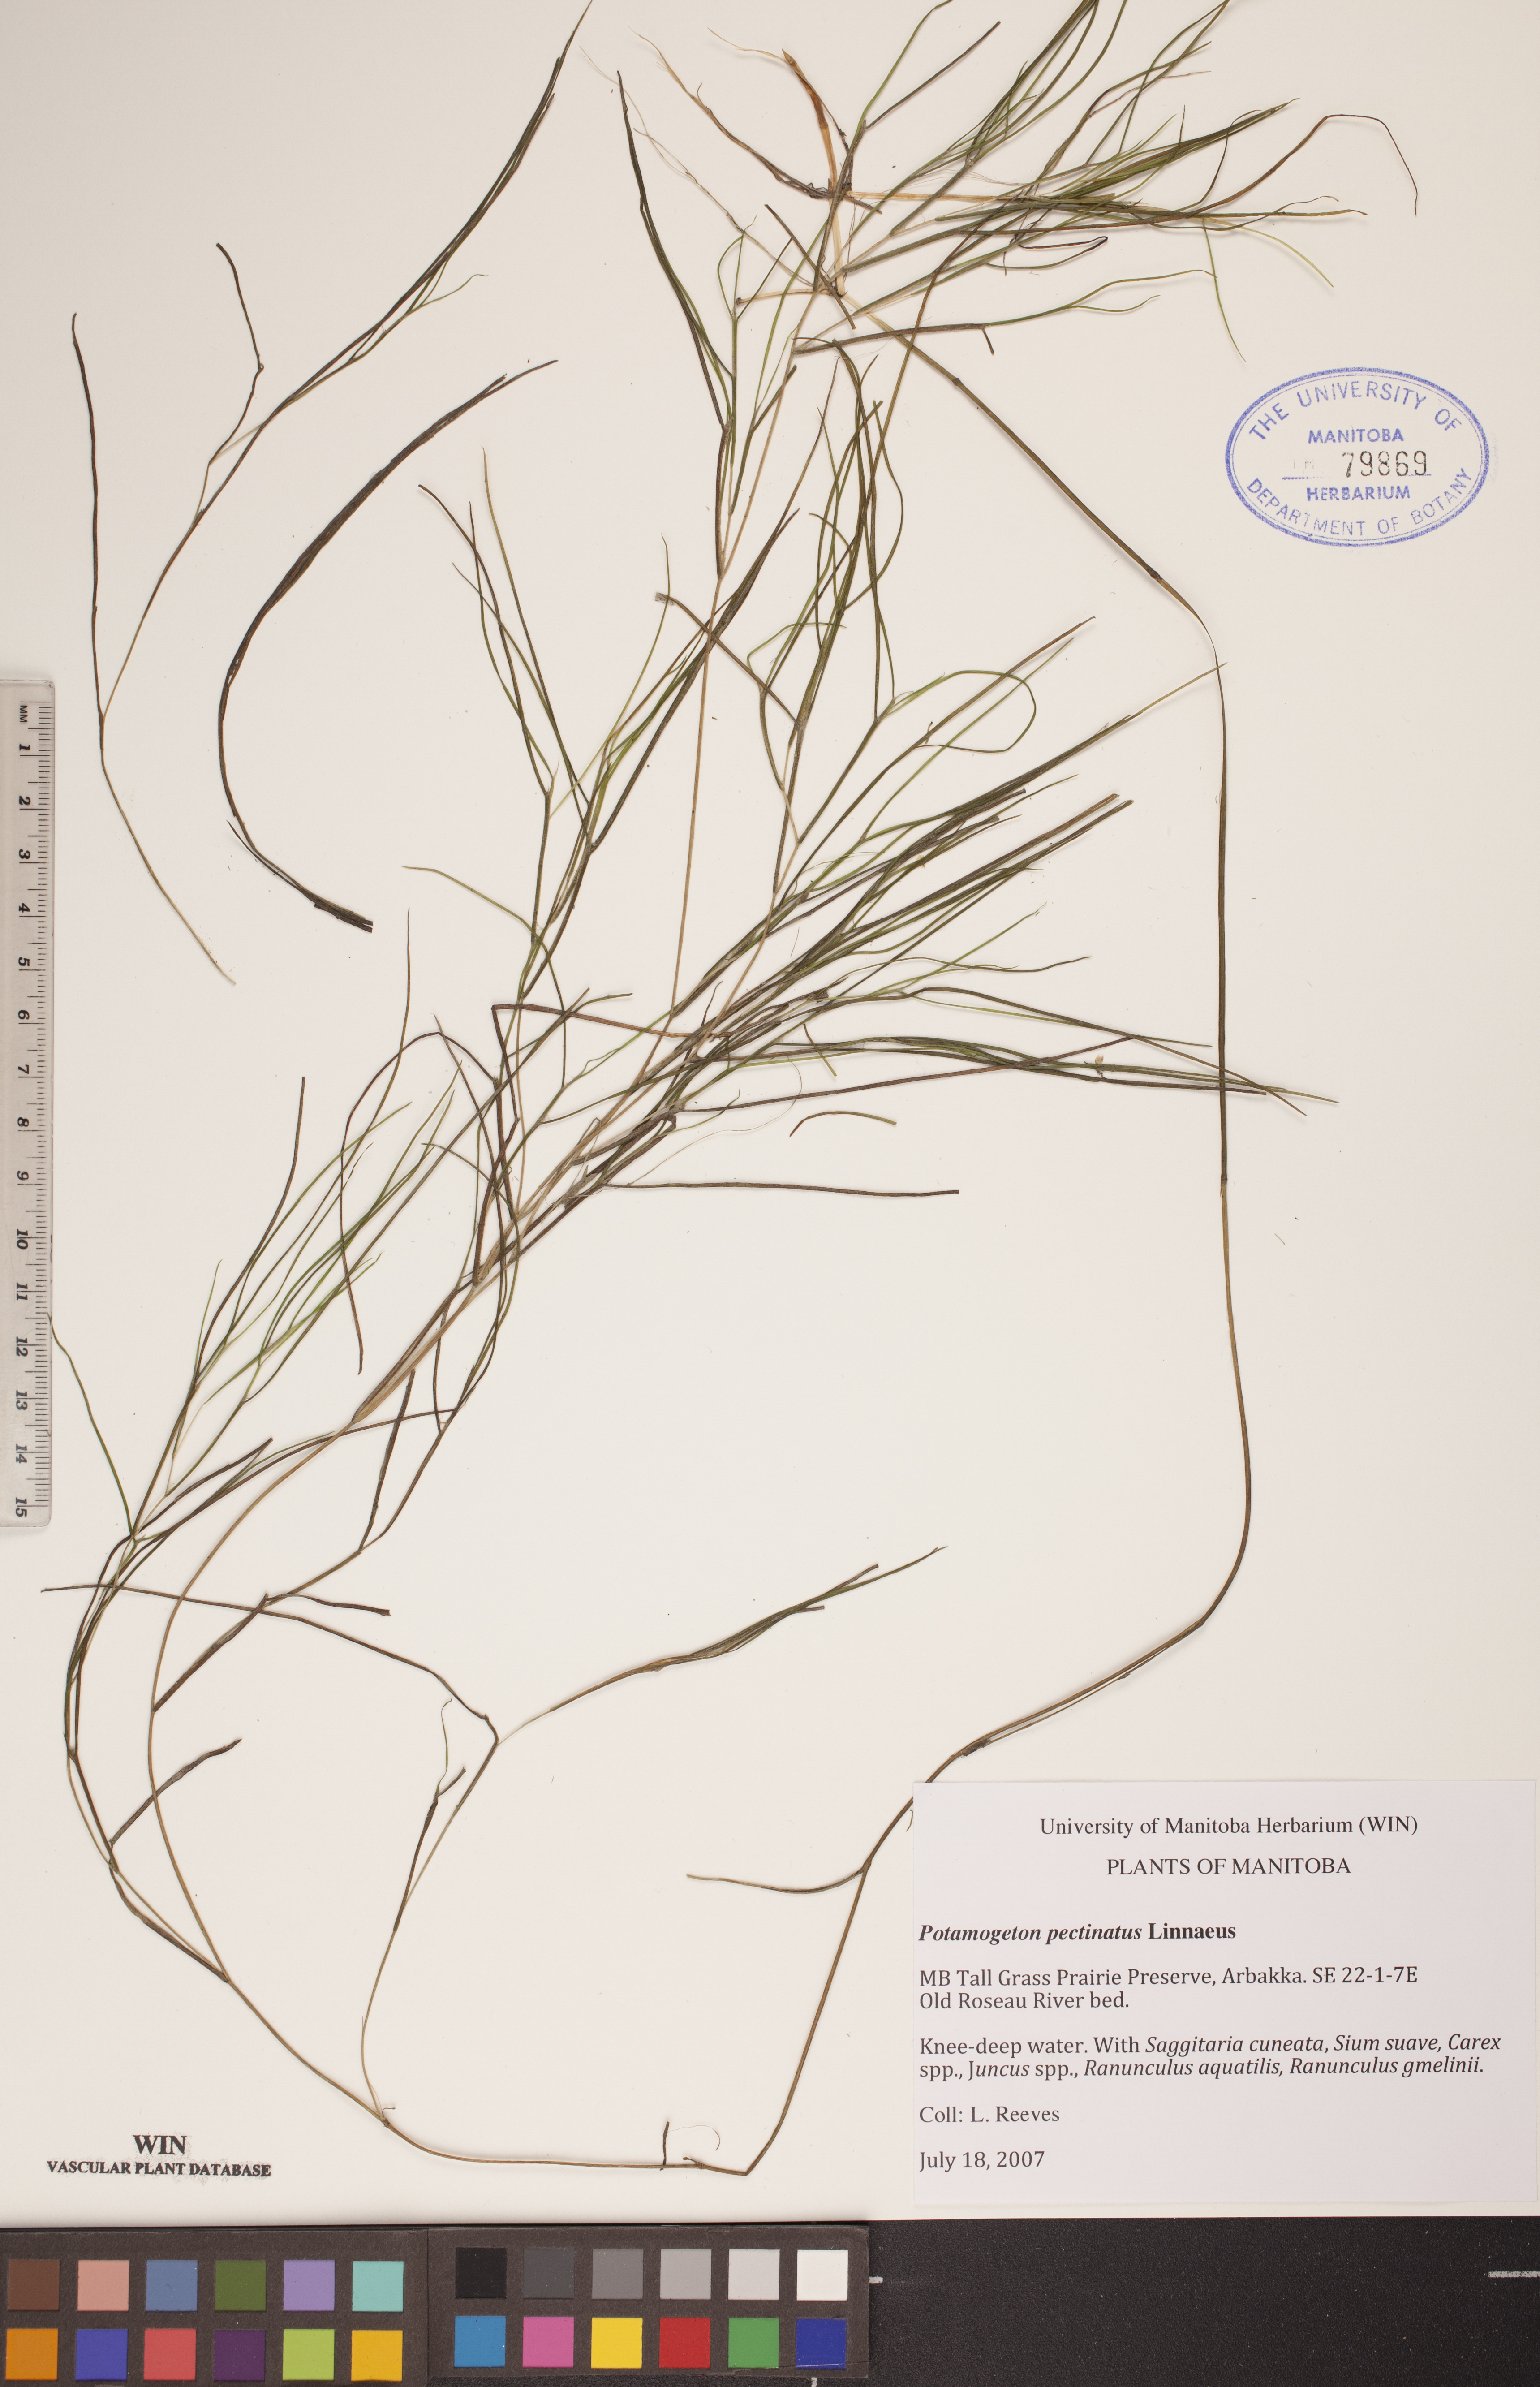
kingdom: Plantae
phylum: Tracheophyta
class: Liliopsida
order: Alismatales
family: Potamogetonaceae
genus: Stuckenia
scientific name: Stuckenia pectinata
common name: Sago pondweed
